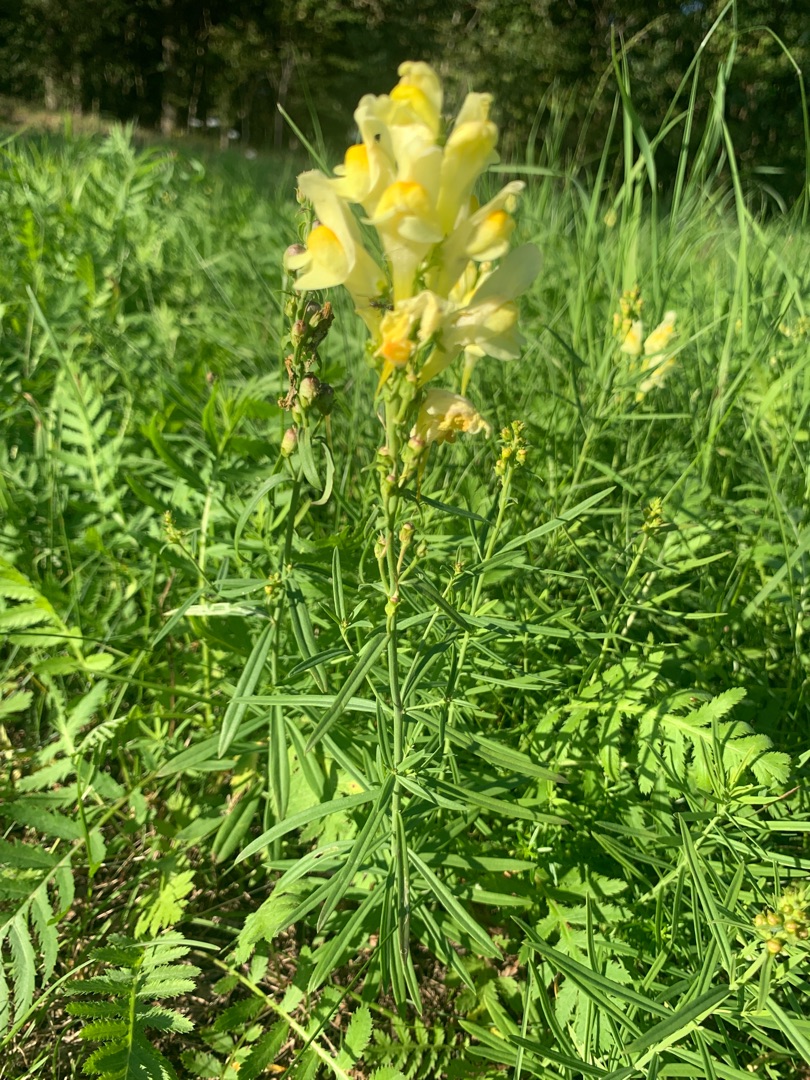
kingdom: Plantae
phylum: Tracheophyta
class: Magnoliopsida
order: Lamiales
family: Plantaginaceae
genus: Linaria
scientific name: Linaria vulgaris
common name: Almindelig torskemund
